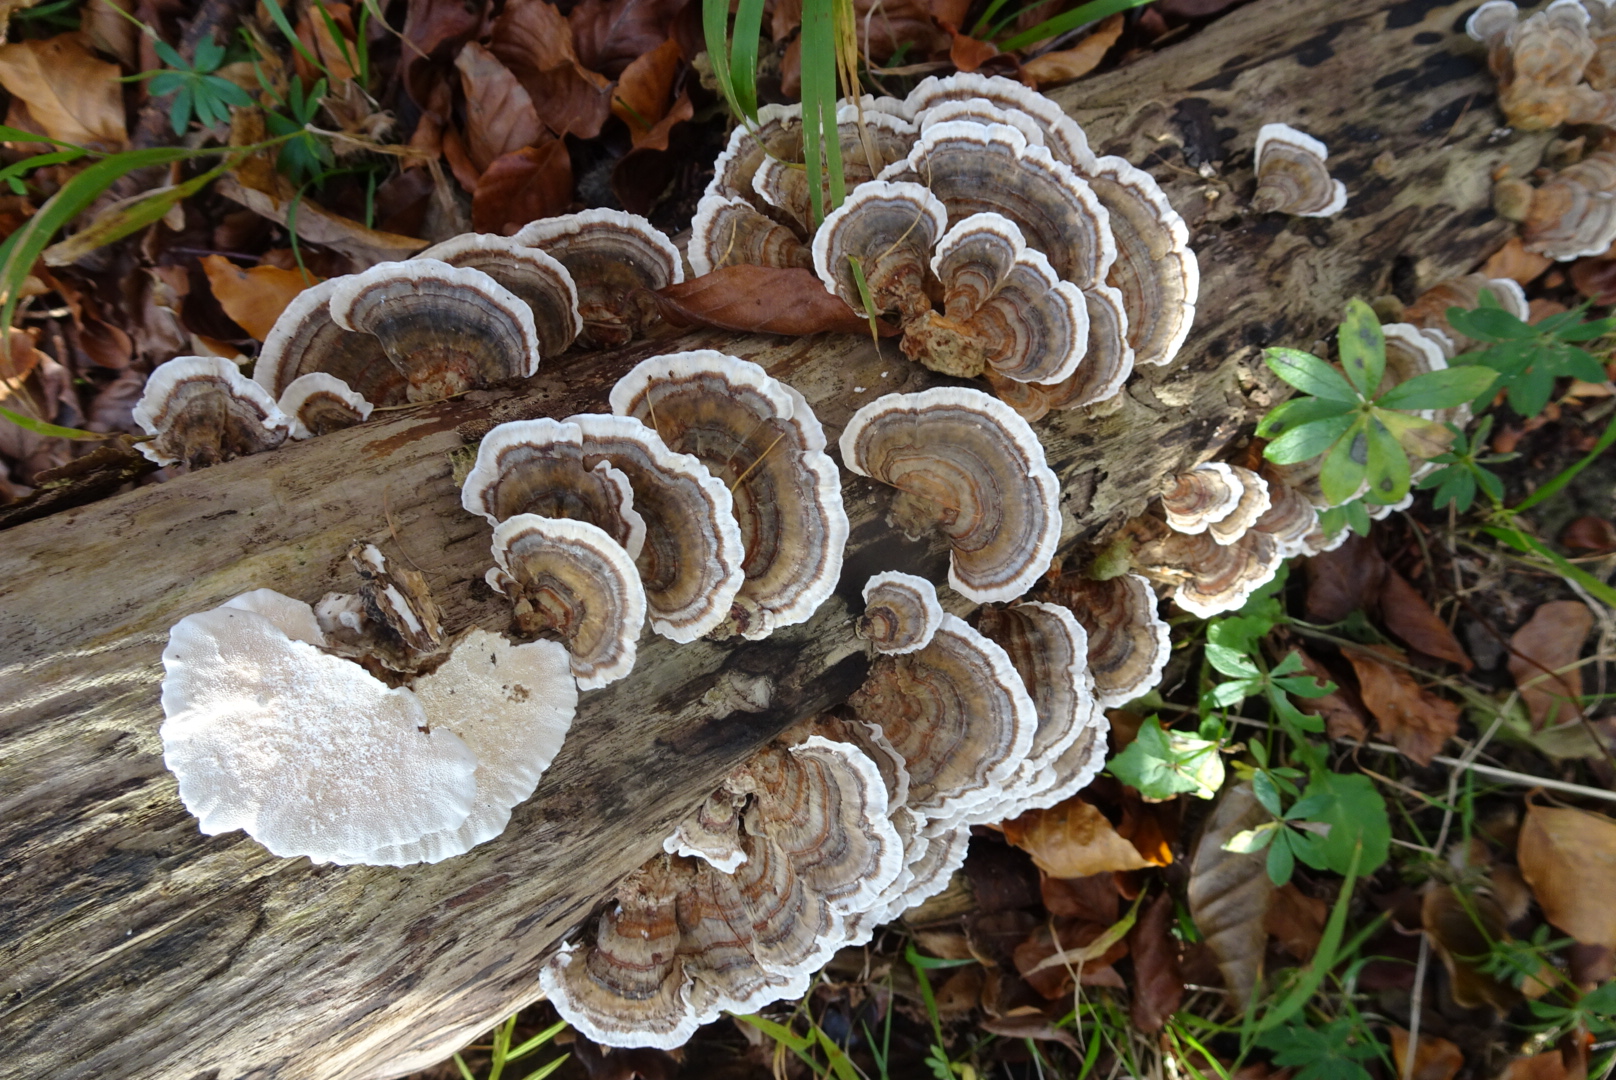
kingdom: Fungi
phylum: Basidiomycota
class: Agaricomycetes
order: Polyporales
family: Polyporaceae
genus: Trametes
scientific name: Trametes versicolor
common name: broget læderporesvamp
